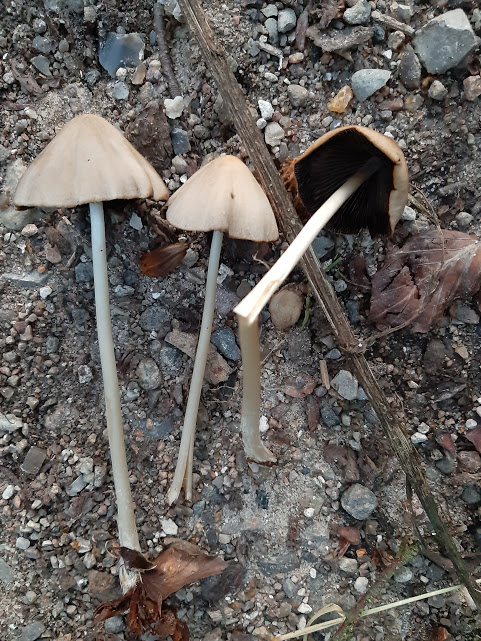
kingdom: Fungi
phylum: Basidiomycota
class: Agaricomycetes
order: Agaricales
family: Psathyrellaceae
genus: Parasola
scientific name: Parasola conopilea
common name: kegle-hjulhat
